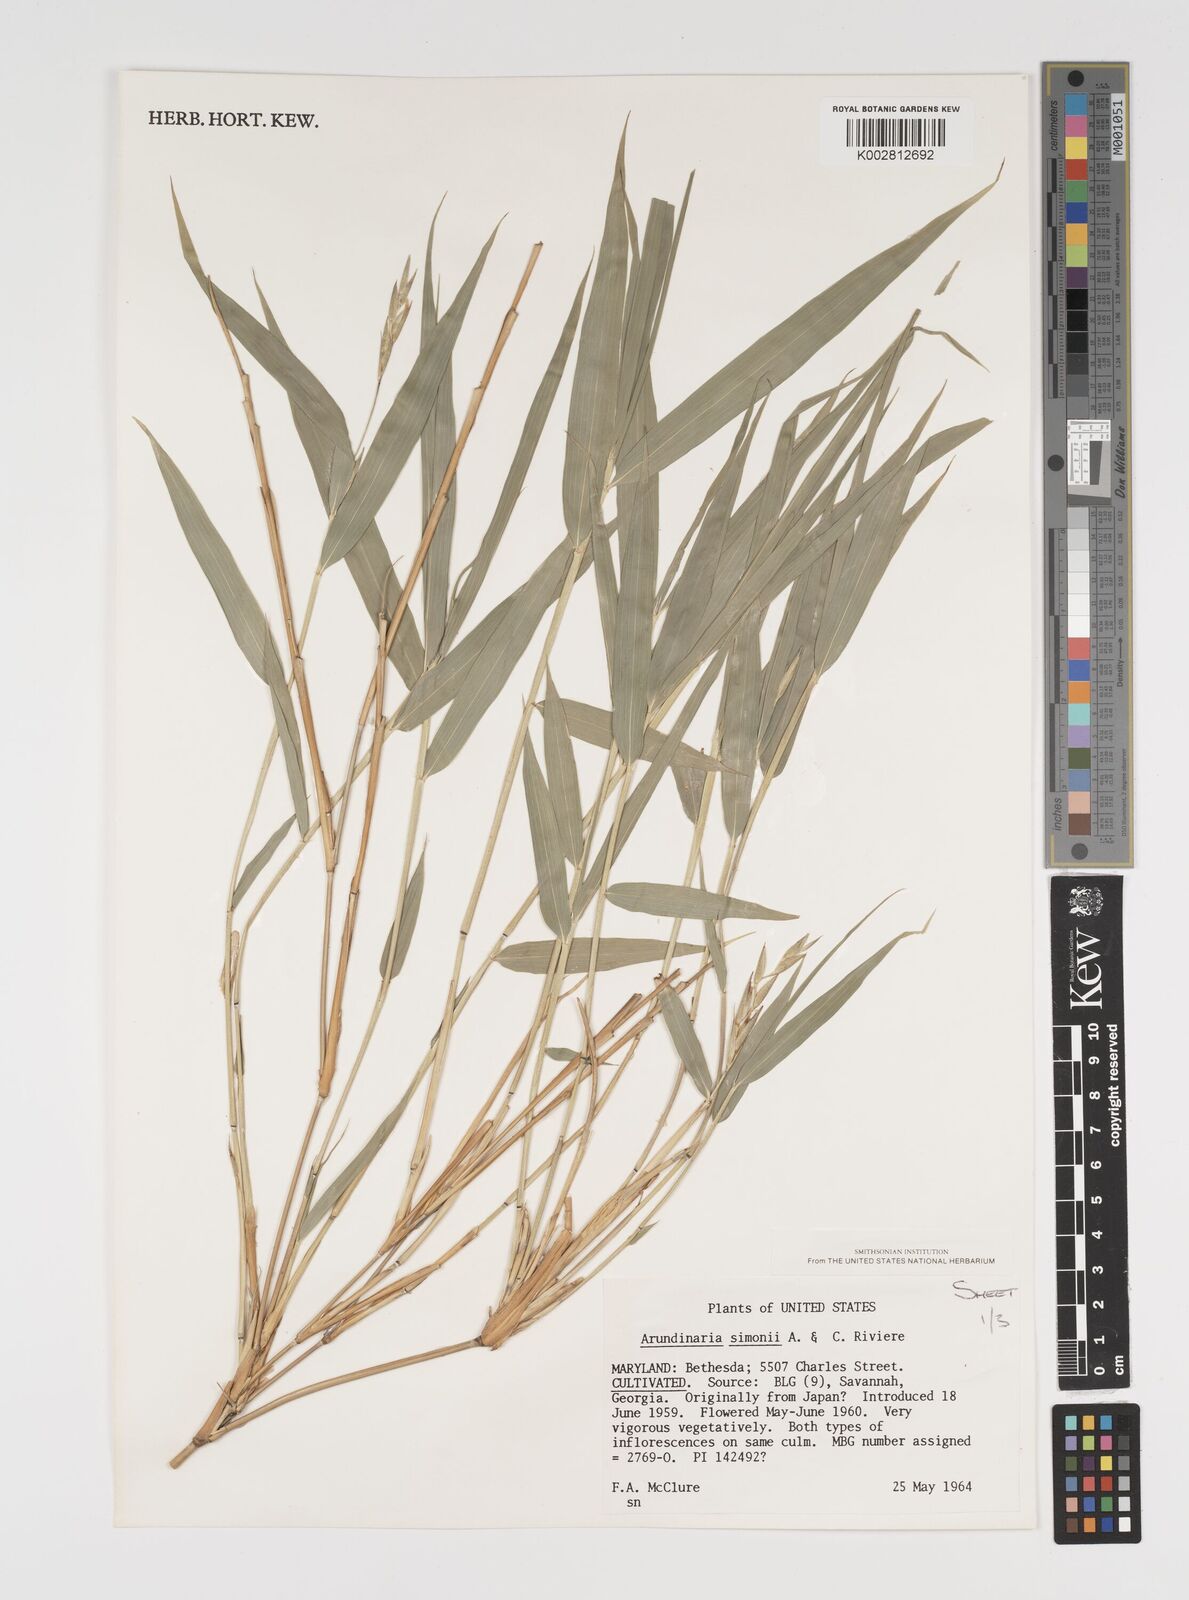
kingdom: Plantae
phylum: Tracheophyta
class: Liliopsida
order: Poales
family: Poaceae
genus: Arundinaria
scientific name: Arundinaria
